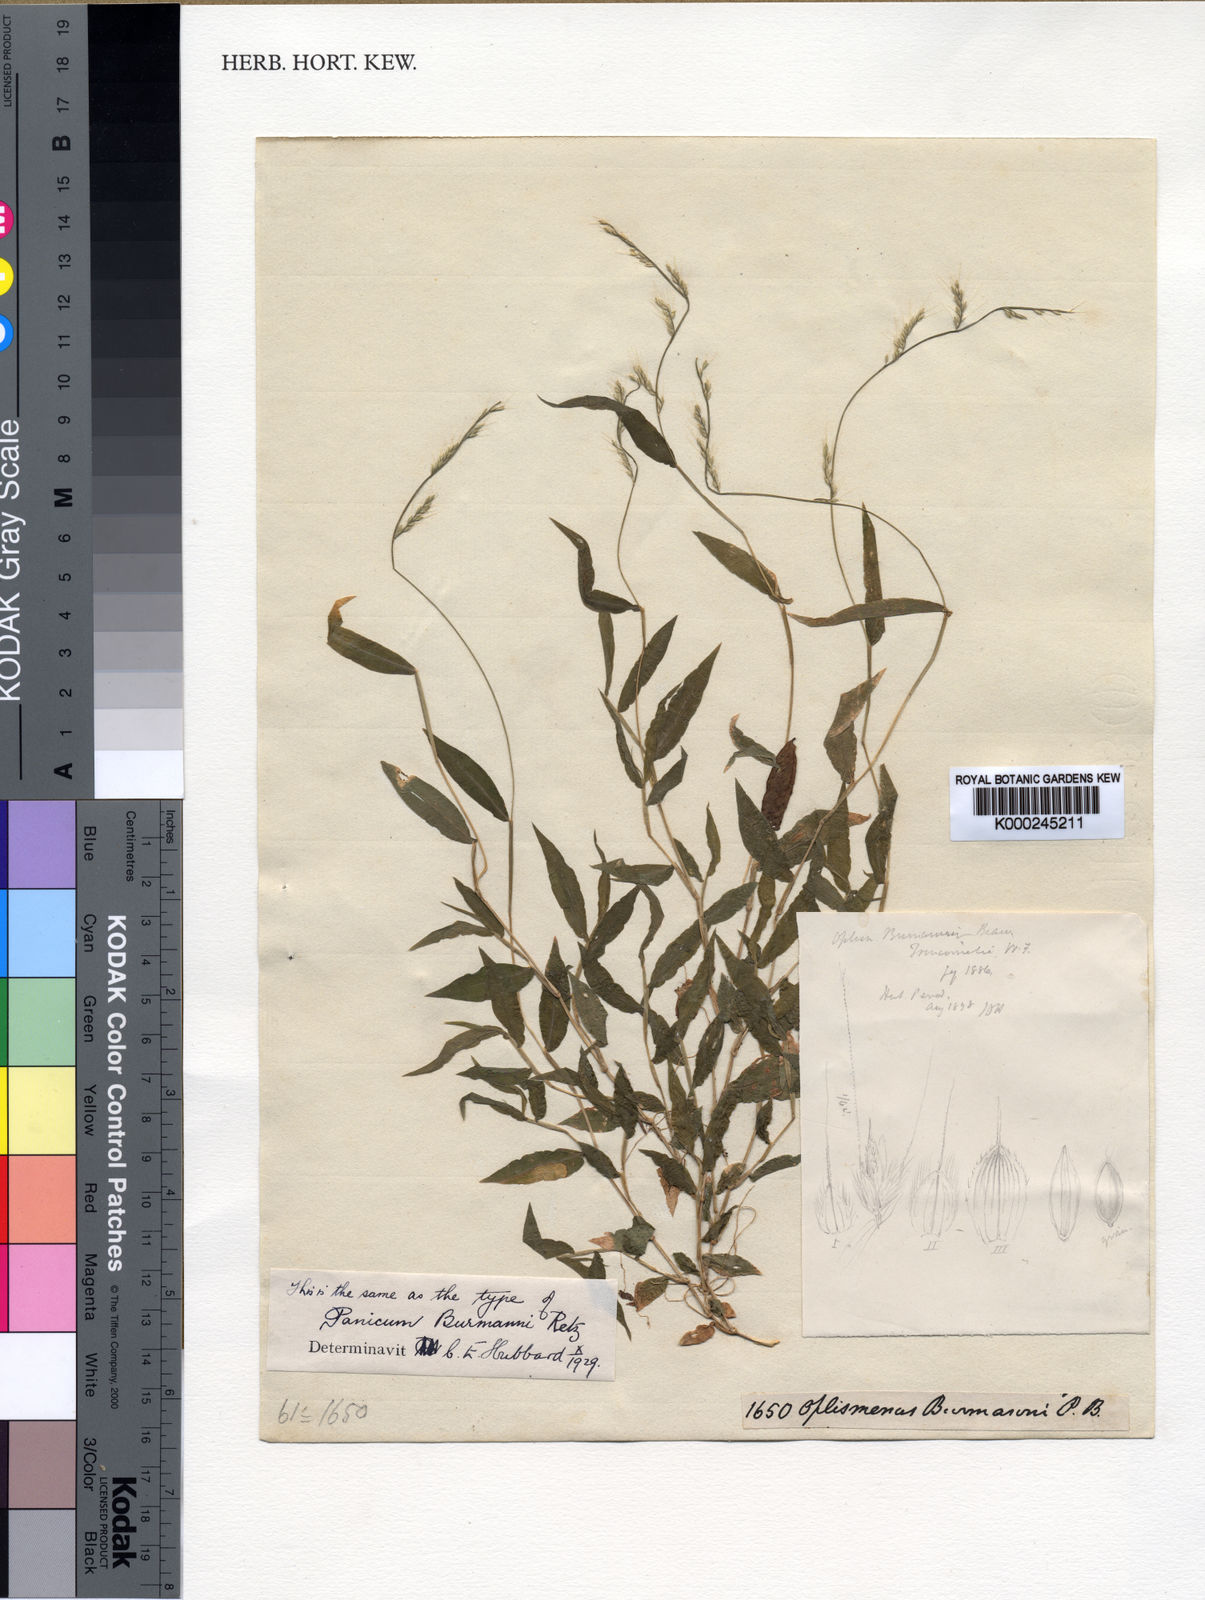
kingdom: Plantae
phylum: Tracheophyta
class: Liliopsida
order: Poales
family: Poaceae
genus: Oplismenus
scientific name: Oplismenus burmanni
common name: Burmann's basketgrass
